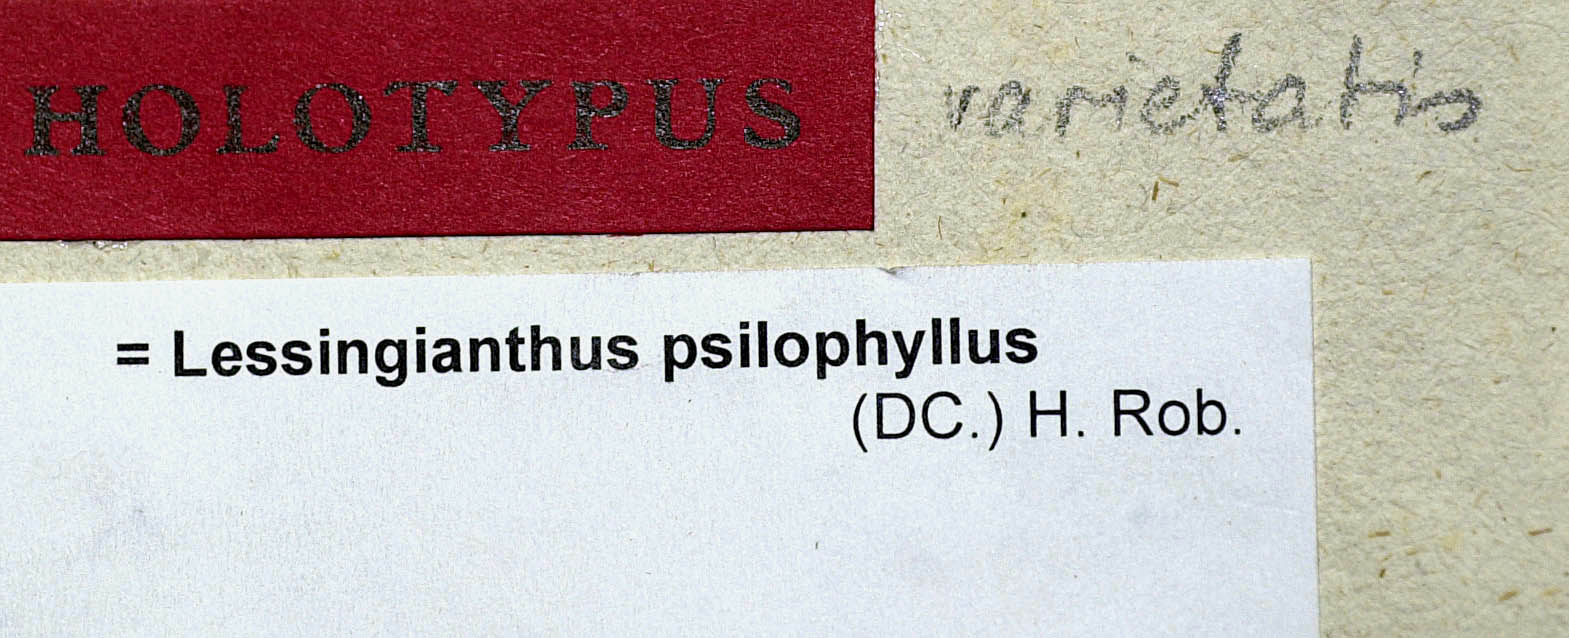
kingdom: Plantae
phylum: Tracheophyta
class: Magnoliopsida
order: Asterales
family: Asteraceae
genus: Lessingianthus
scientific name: Lessingianthus psilophyllus
